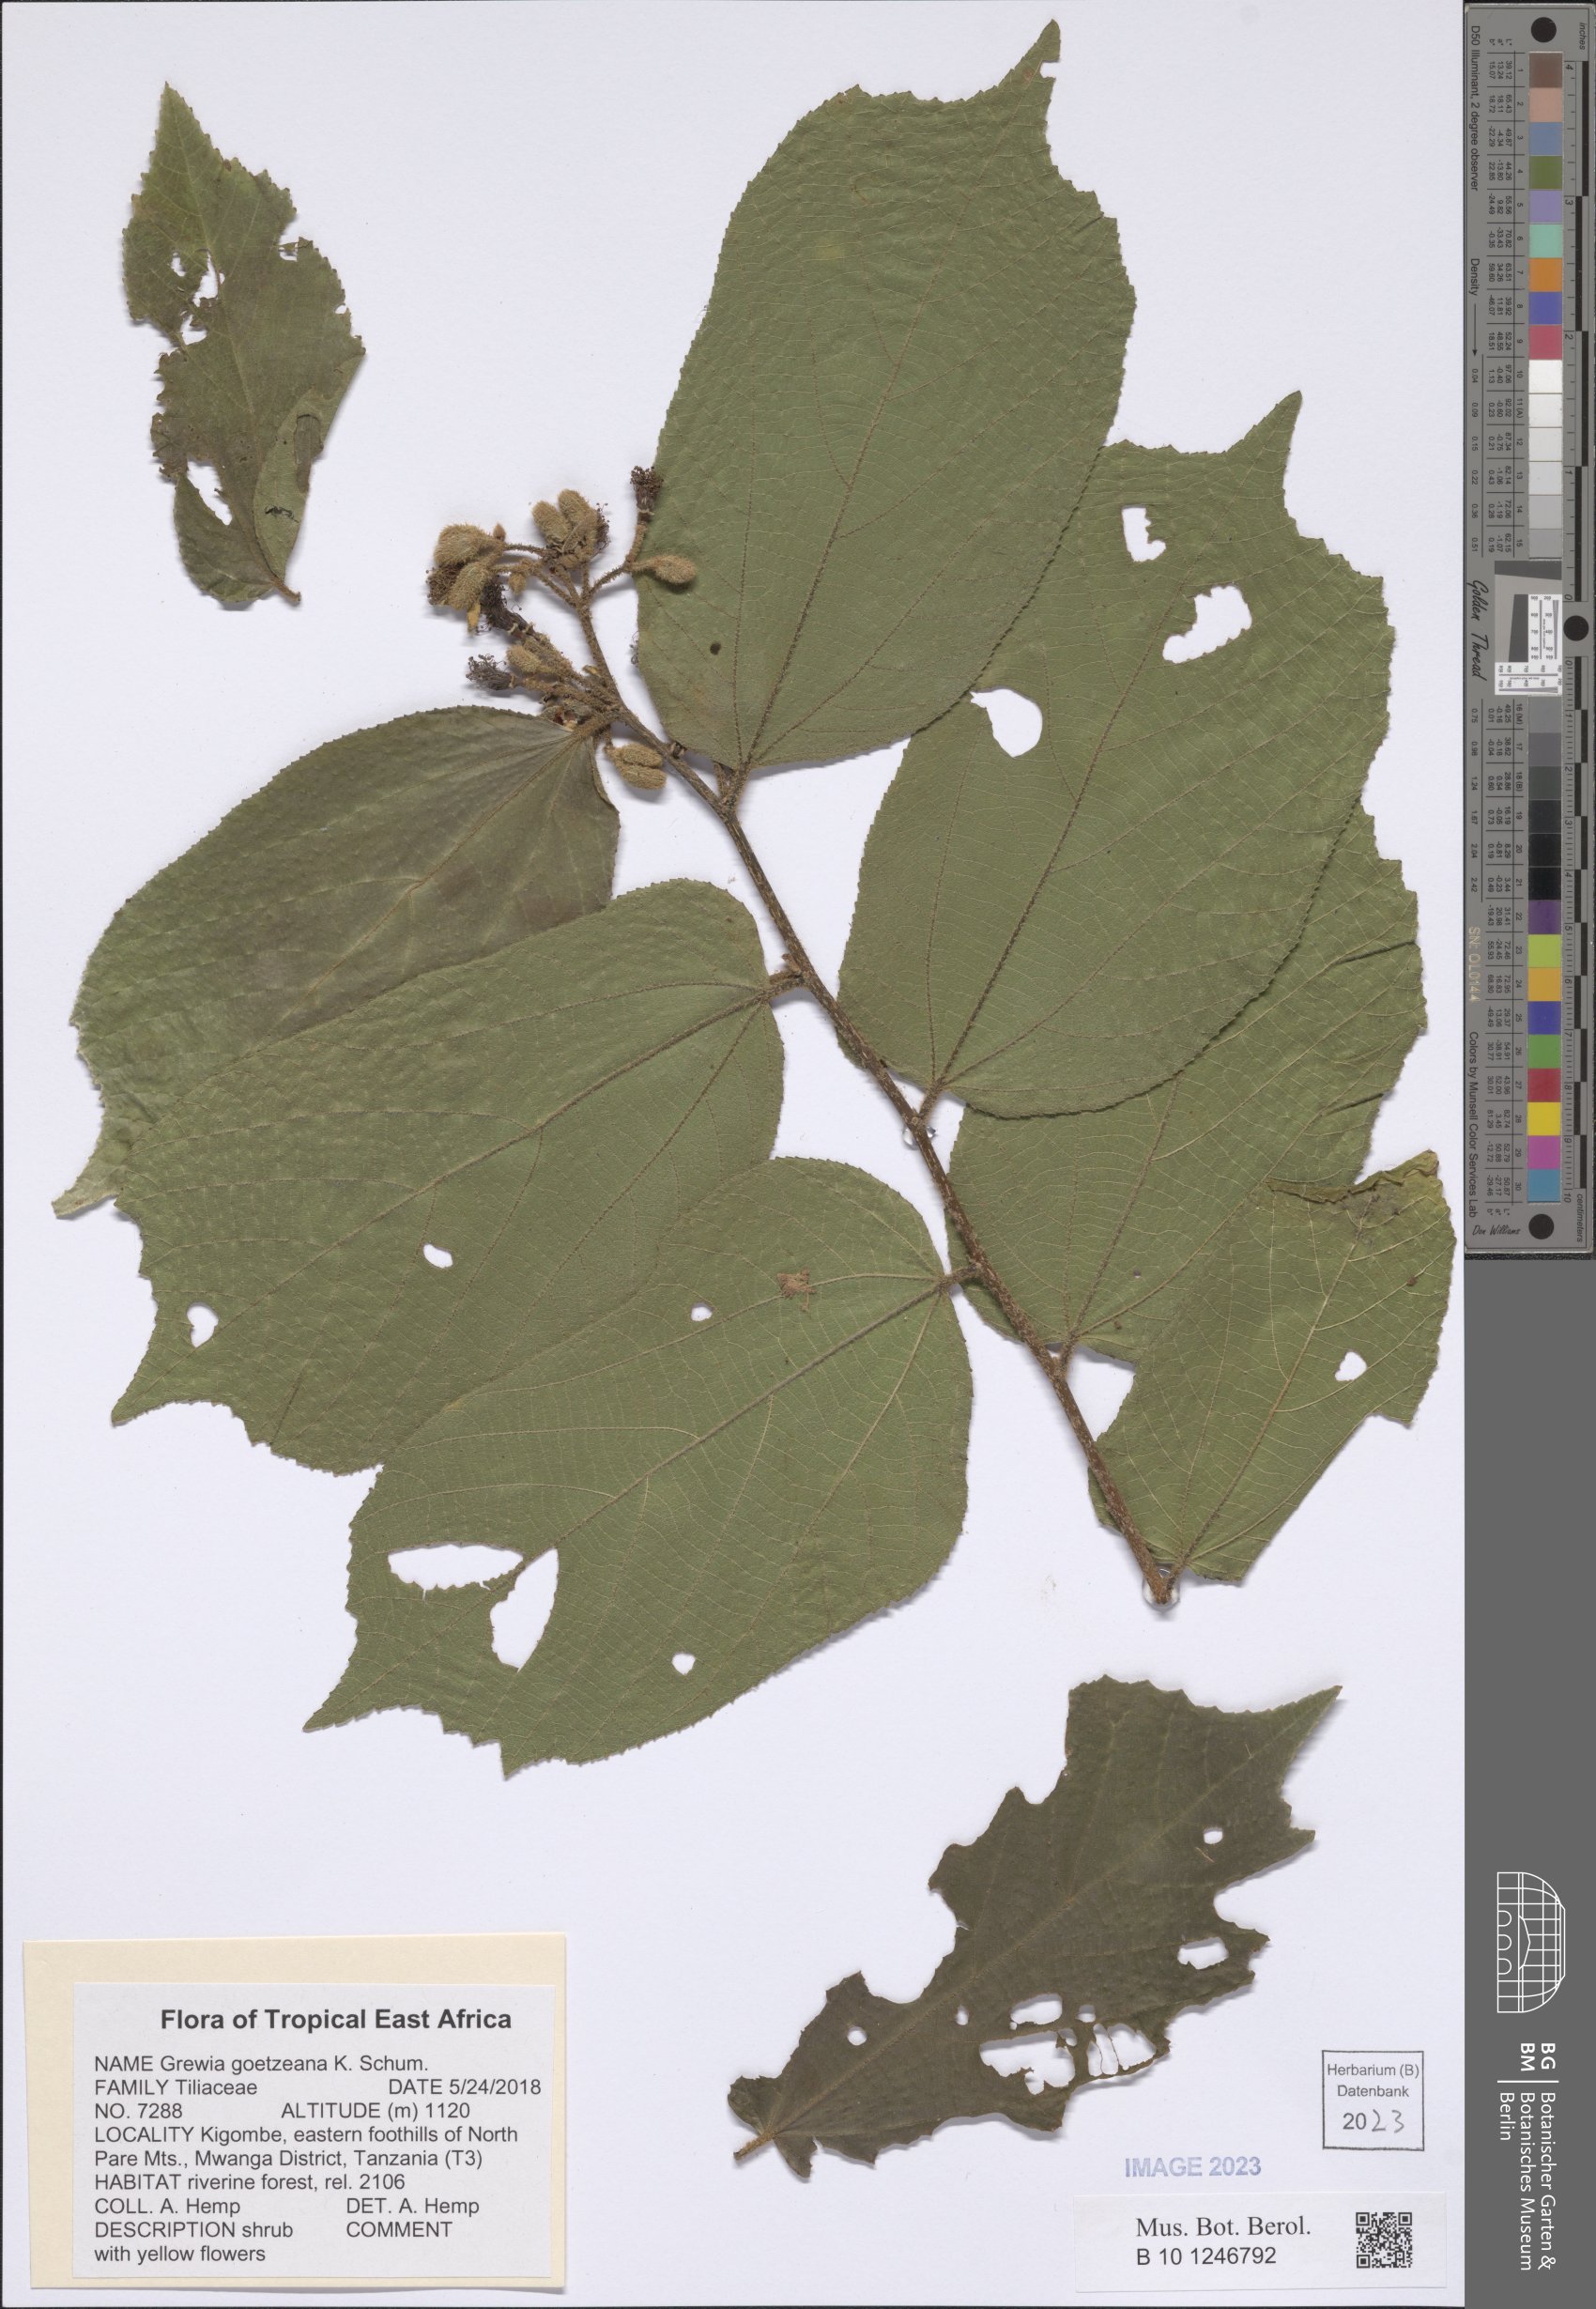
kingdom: Plantae
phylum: Tracheophyta
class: Magnoliopsida
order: Malvales
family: Malvaceae
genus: Grewia
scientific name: Grewia goetzeana
